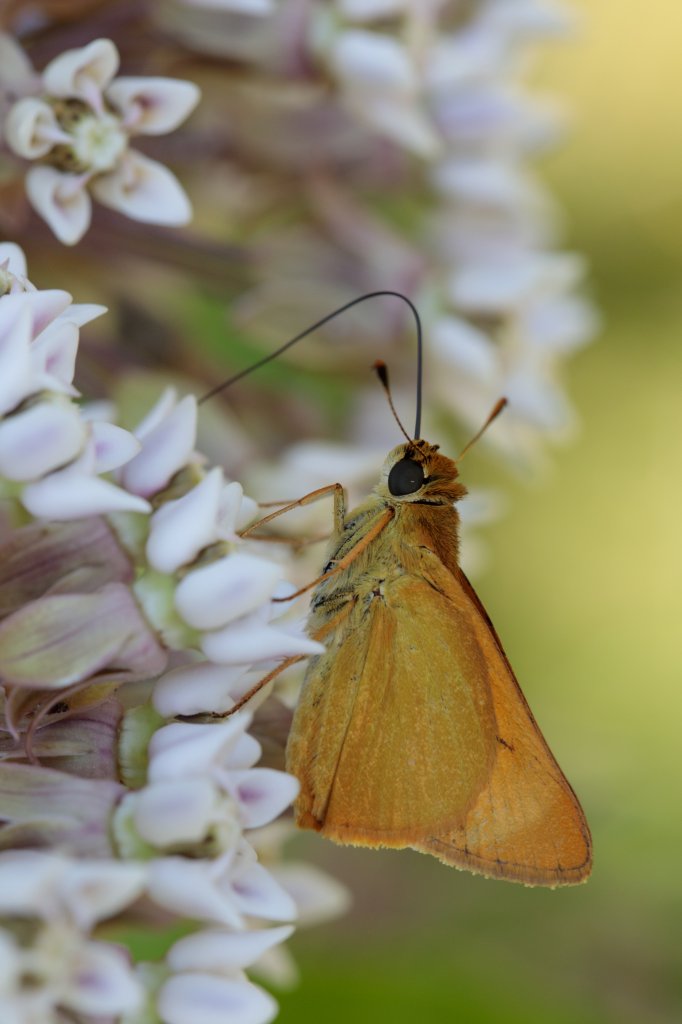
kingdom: Animalia
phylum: Arthropoda
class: Insecta
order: Lepidoptera
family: Hesperiidae
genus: Atrytone
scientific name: Atrytone delaware
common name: Delaware Skipper
